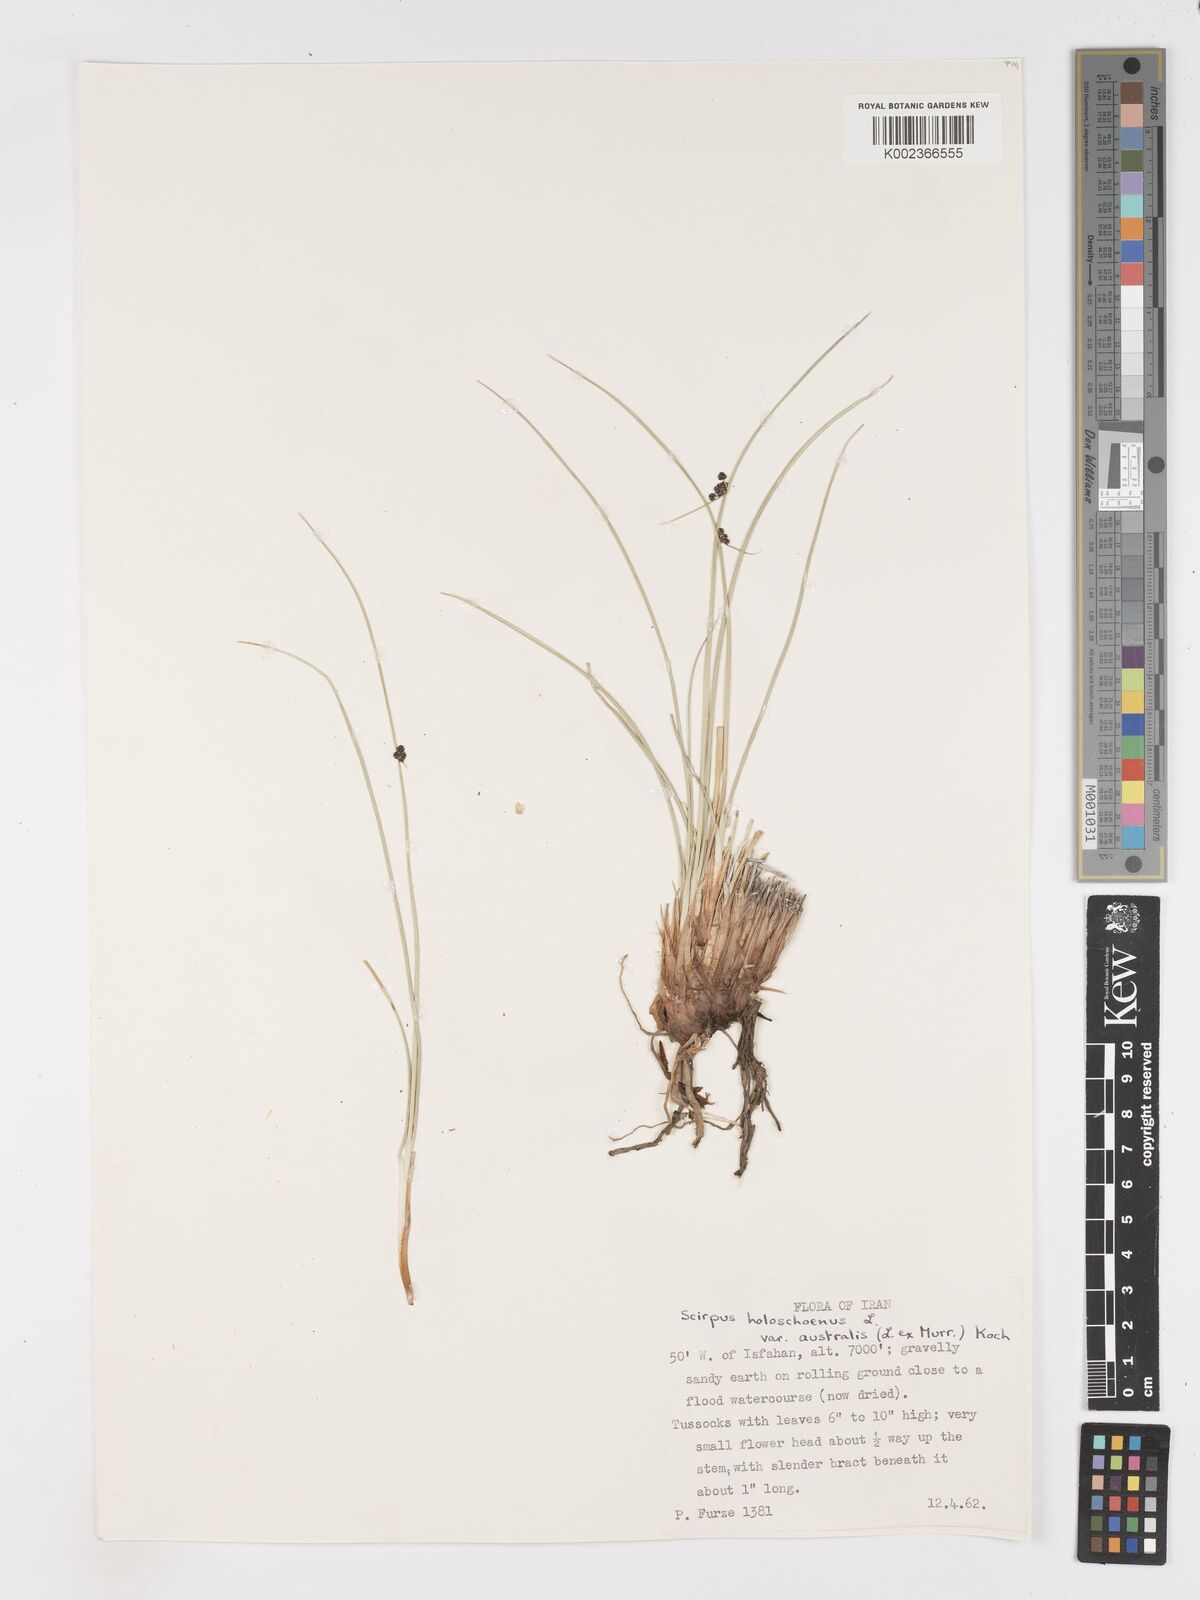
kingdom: Plantae
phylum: Tracheophyta
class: Liliopsida
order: Poales
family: Cyperaceae
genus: Scirpoides
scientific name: Scirpoides holoschoenus
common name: Round-headed club-rush
